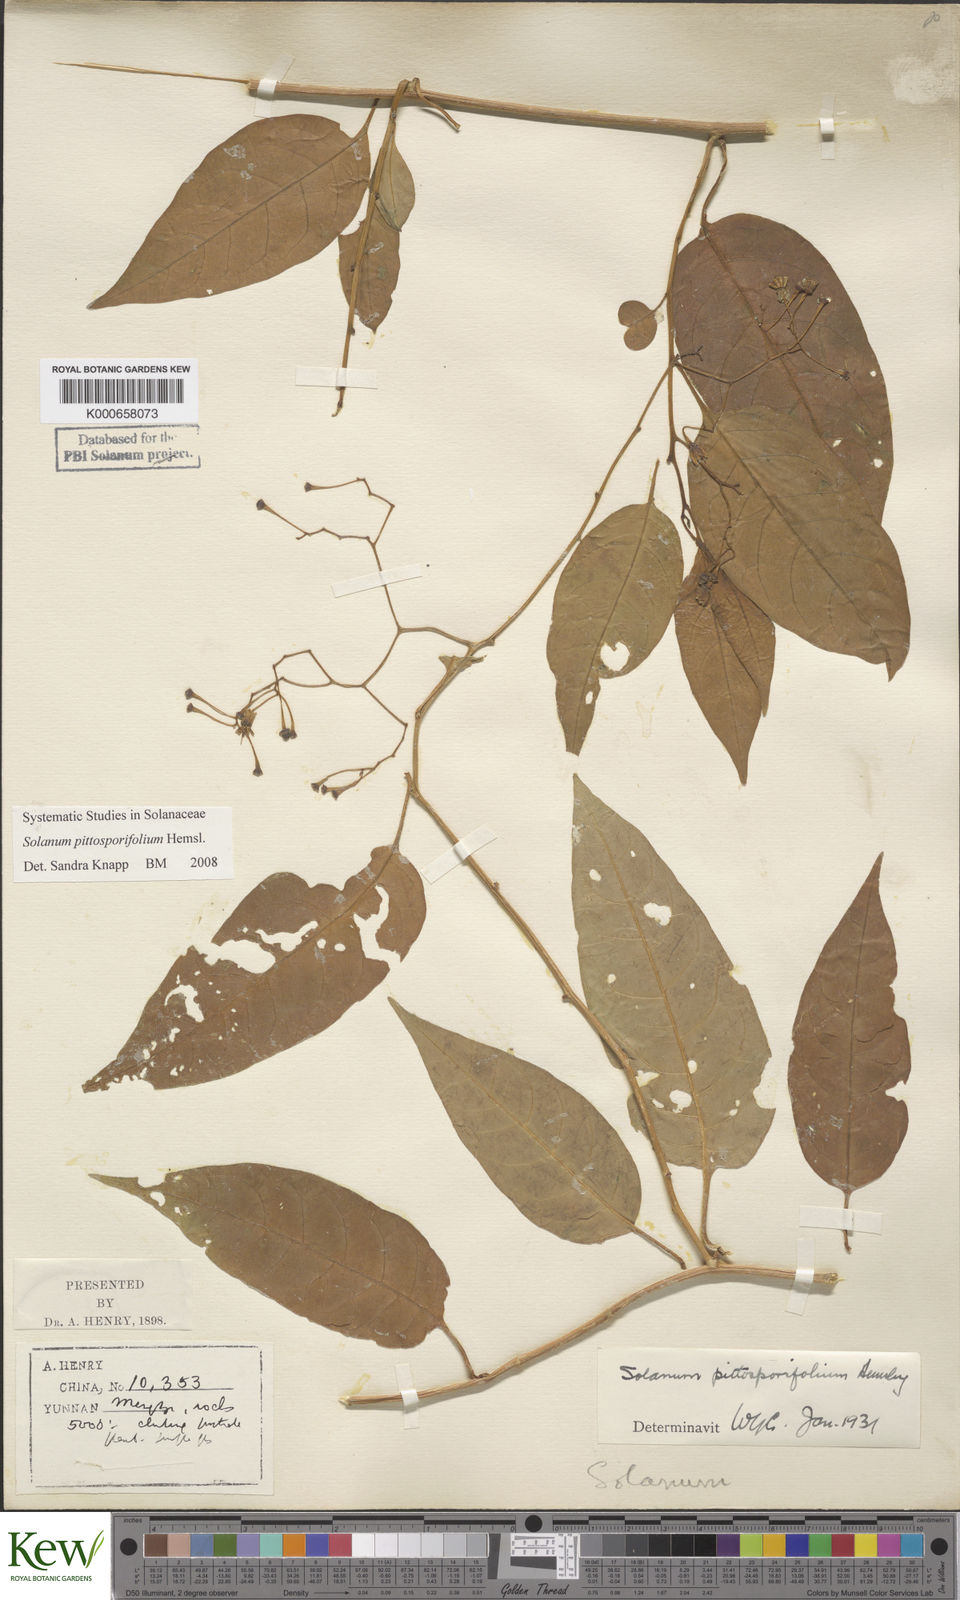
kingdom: Plantae
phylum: Tracheophyta
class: Magnoliopsida
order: Solanales
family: Solanaceae
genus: Solanum
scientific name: Solanum pittosporifolium
